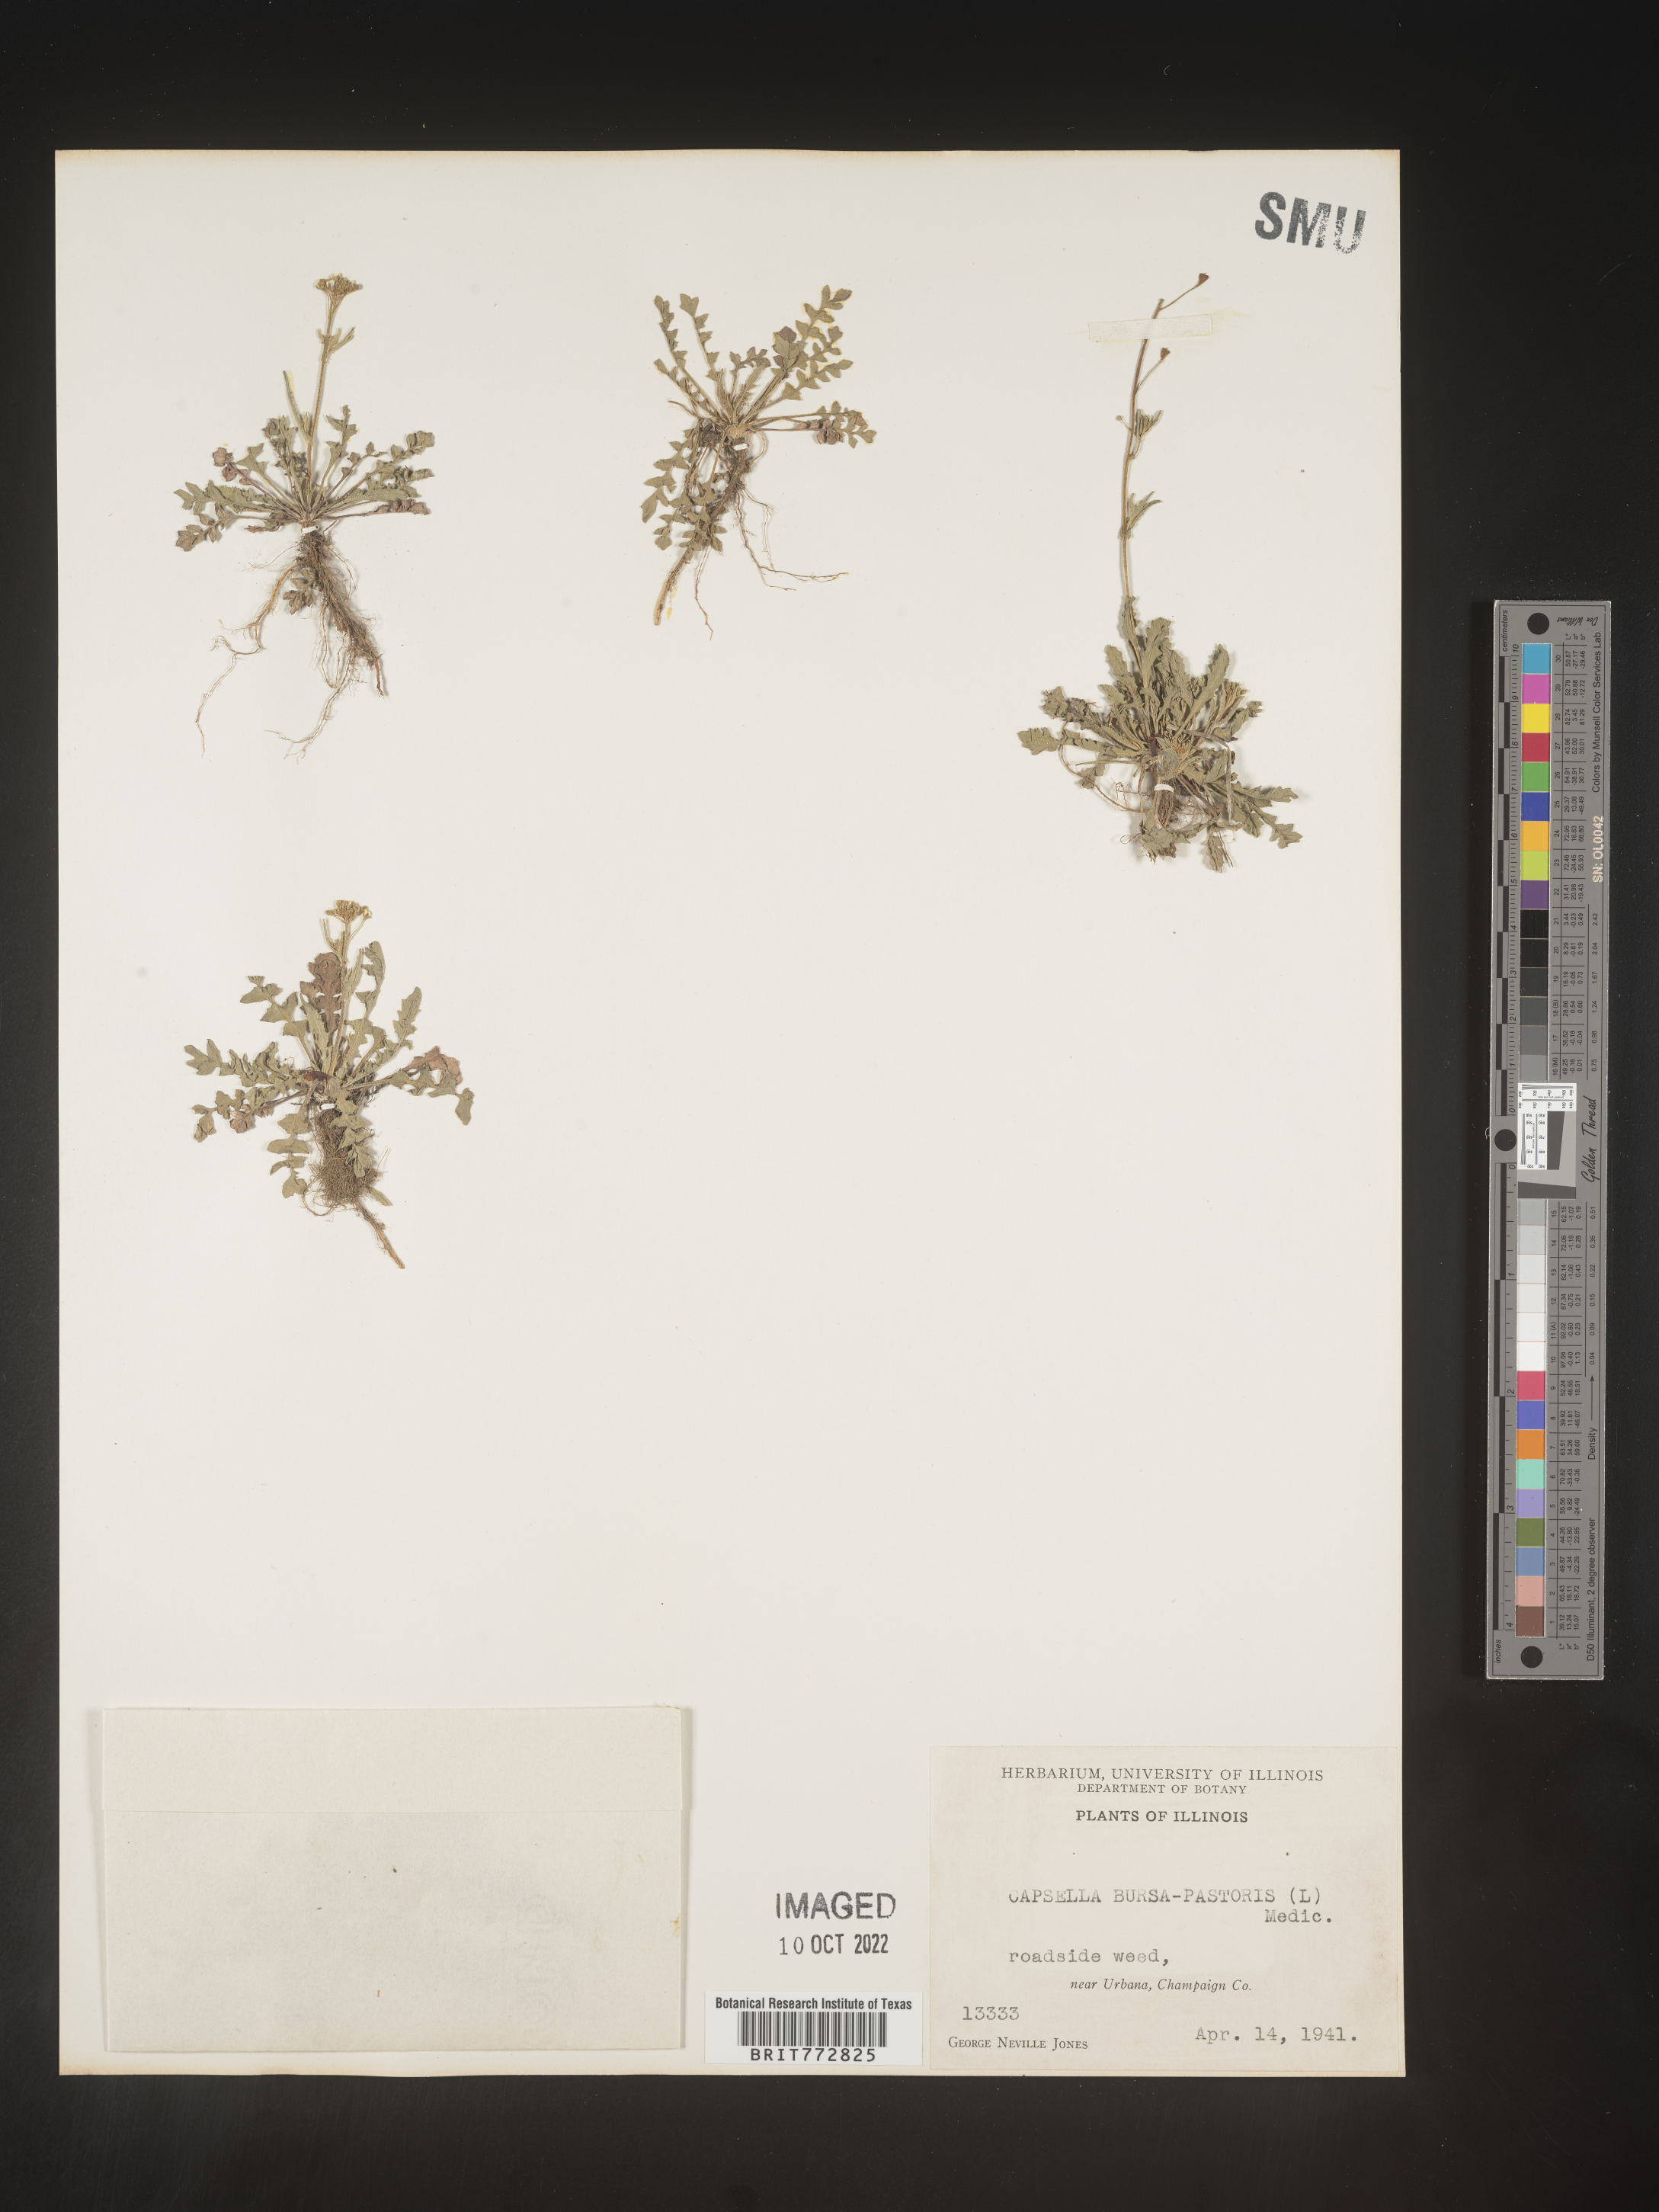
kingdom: Plantae
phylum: Tracheophyta
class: Magnoliopsida
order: Brassicales
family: Brassicaceae
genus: Capsella
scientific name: Capsella bursa-pastoris
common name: Shepherd's purse
